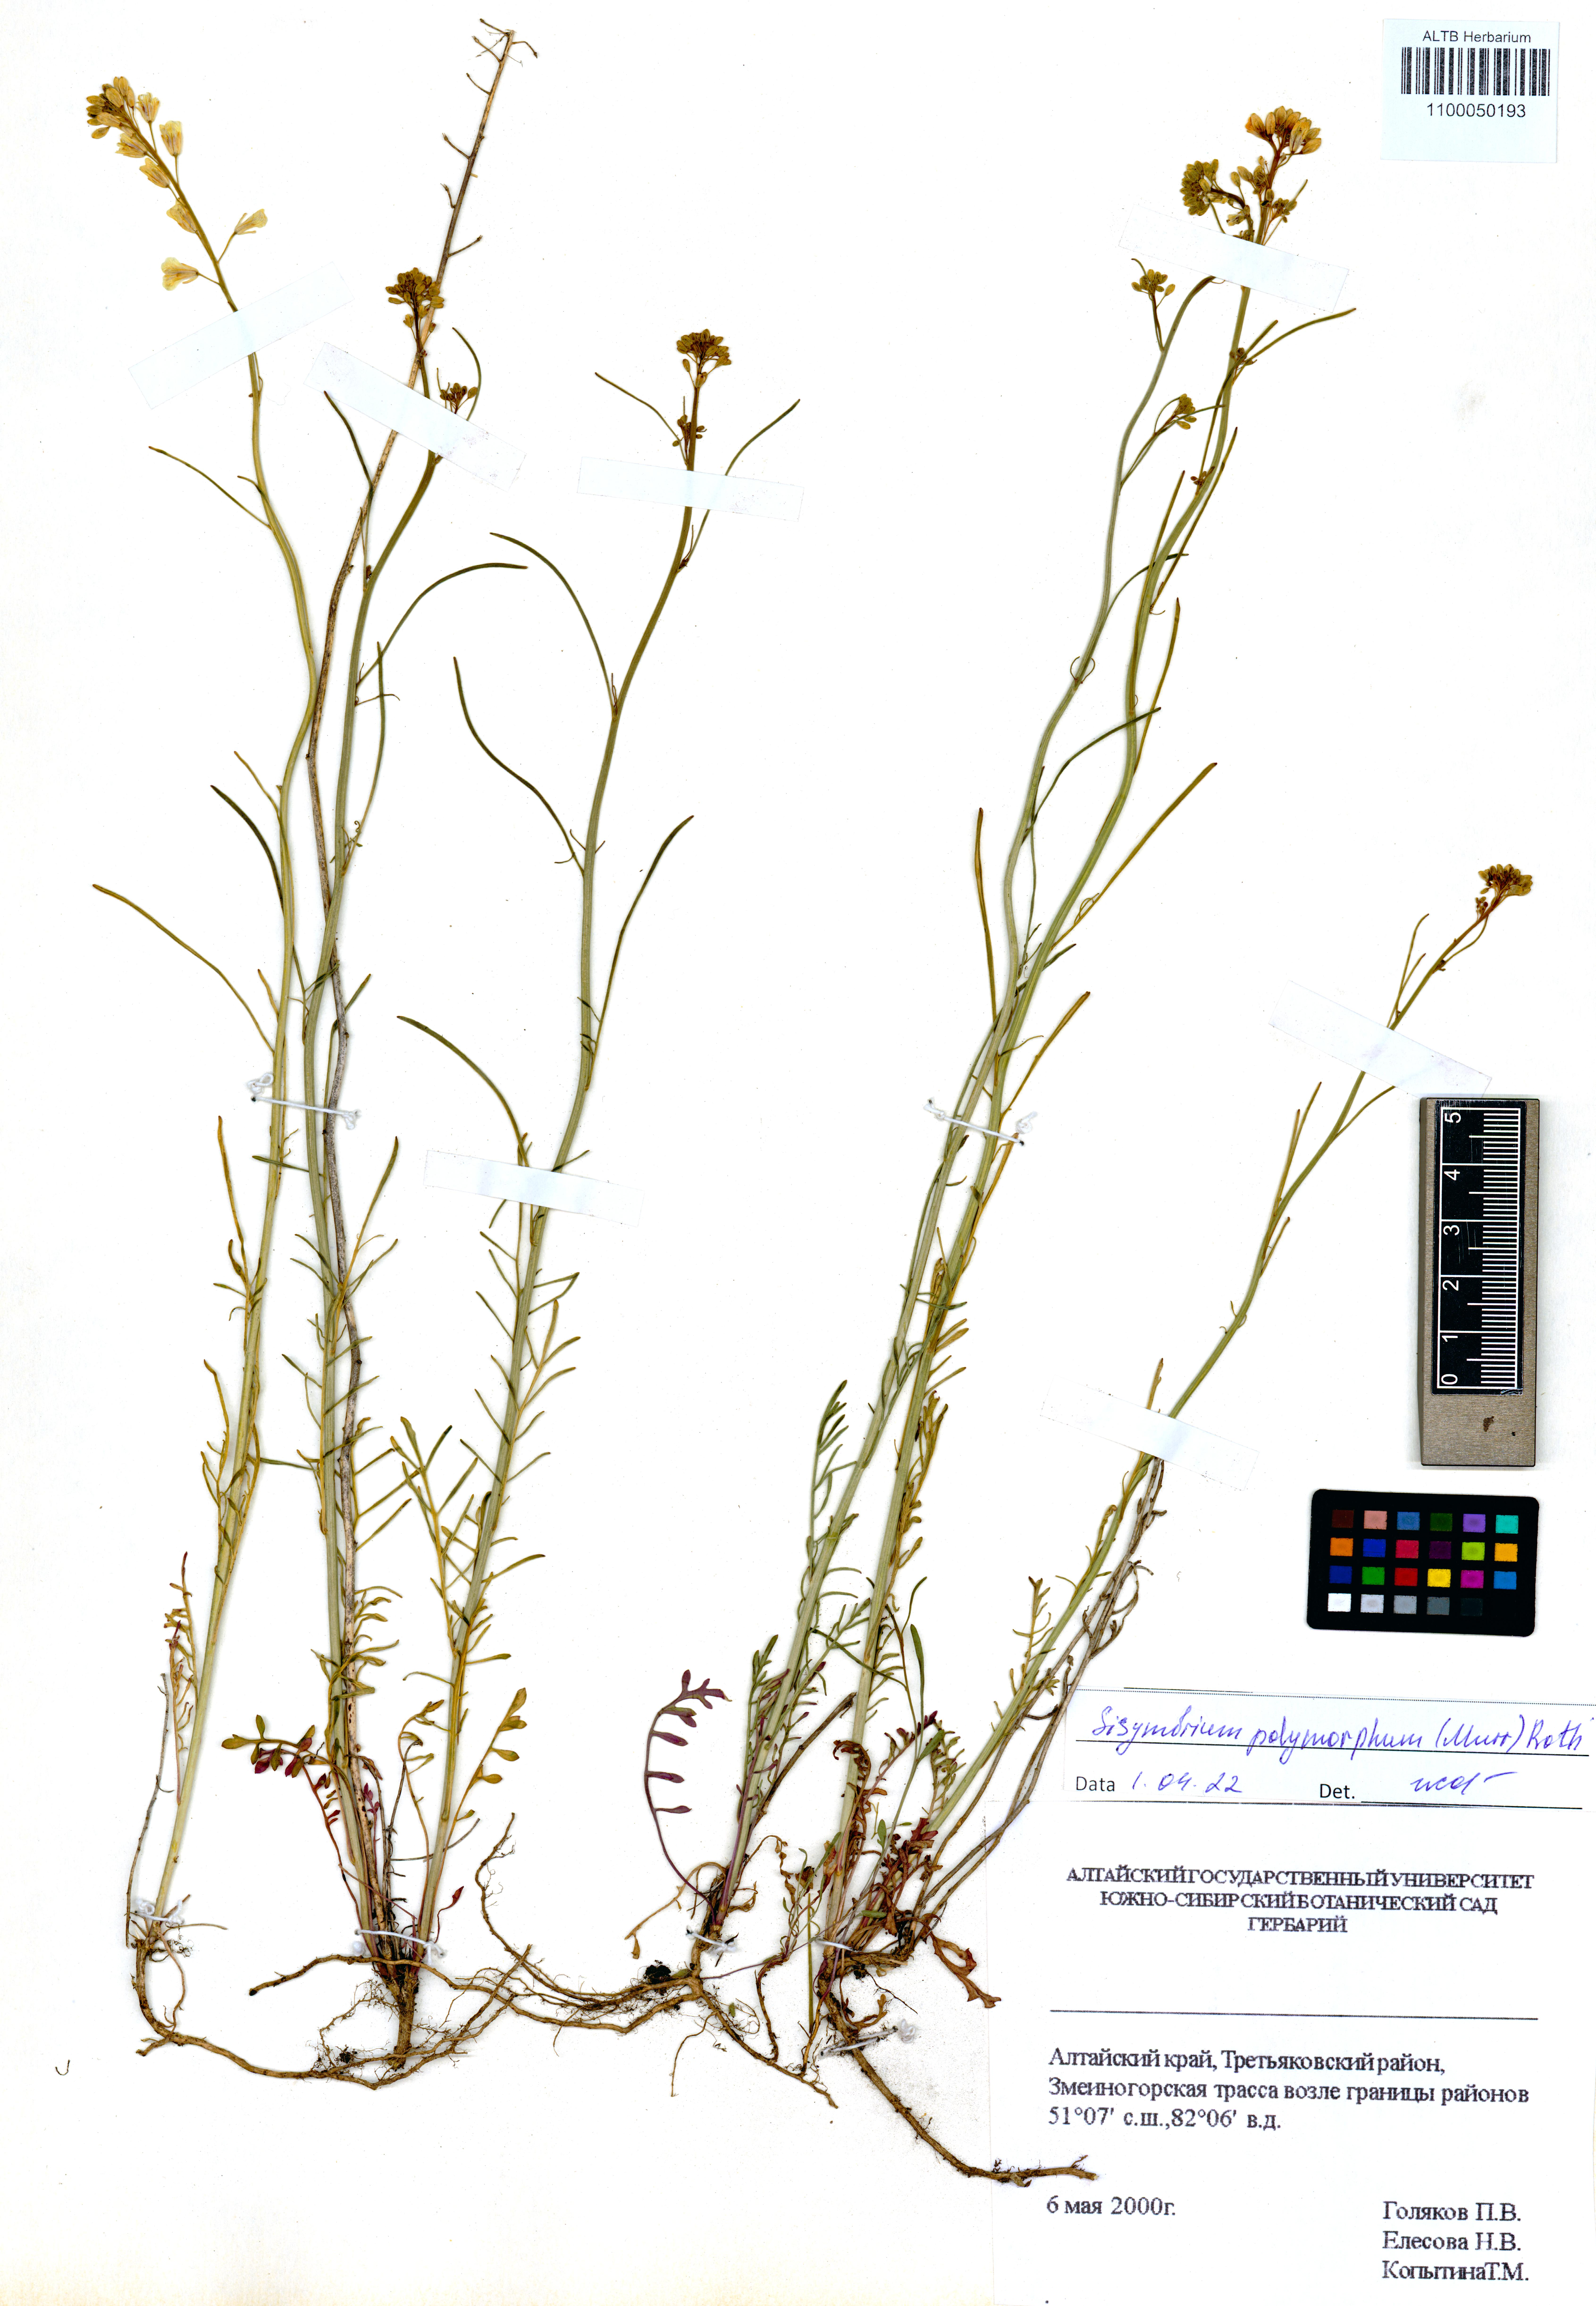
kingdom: Plantae
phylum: Tracheophyta
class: Magnoliopsida
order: Brassicales
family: Brassicaceae
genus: Sisymbrium
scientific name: Sisymbrium polymorphum
